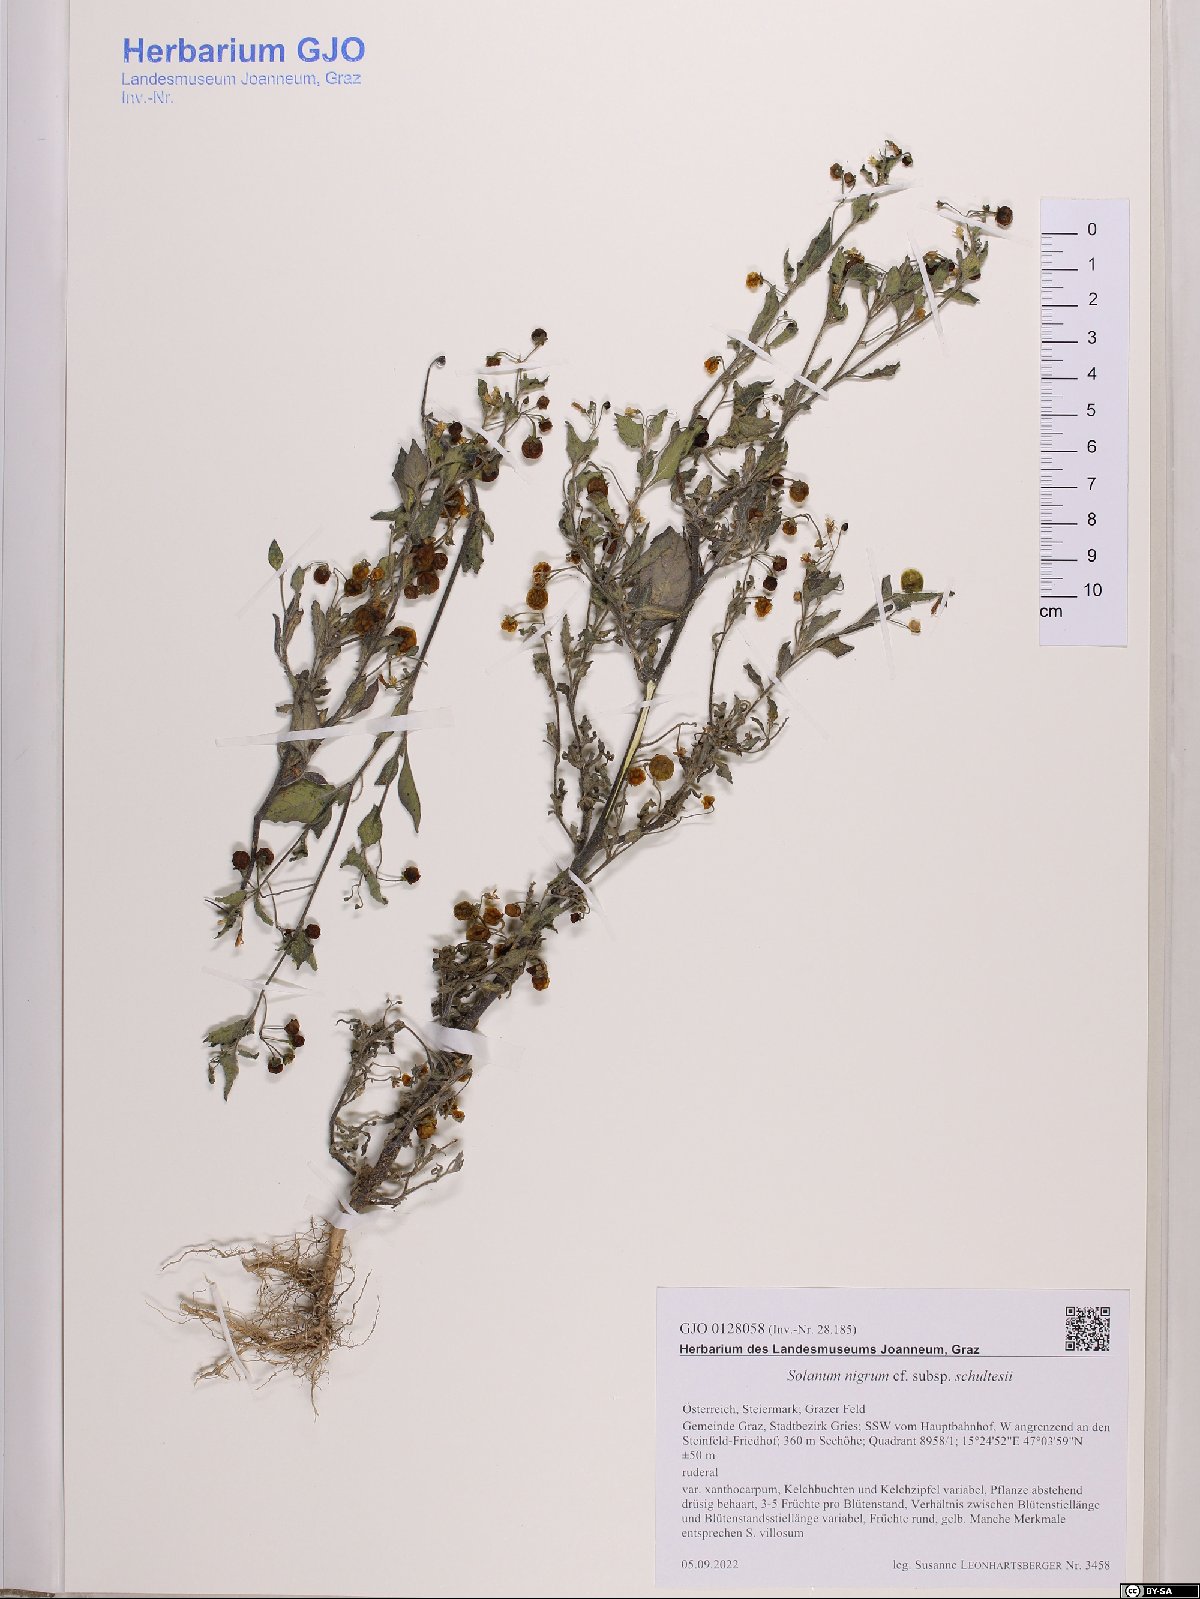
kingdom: Plantae
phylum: Tracheophyta
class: Magnoliopsida
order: Solanales
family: Solanaceae
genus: Solanum
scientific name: Solanum decipiens
